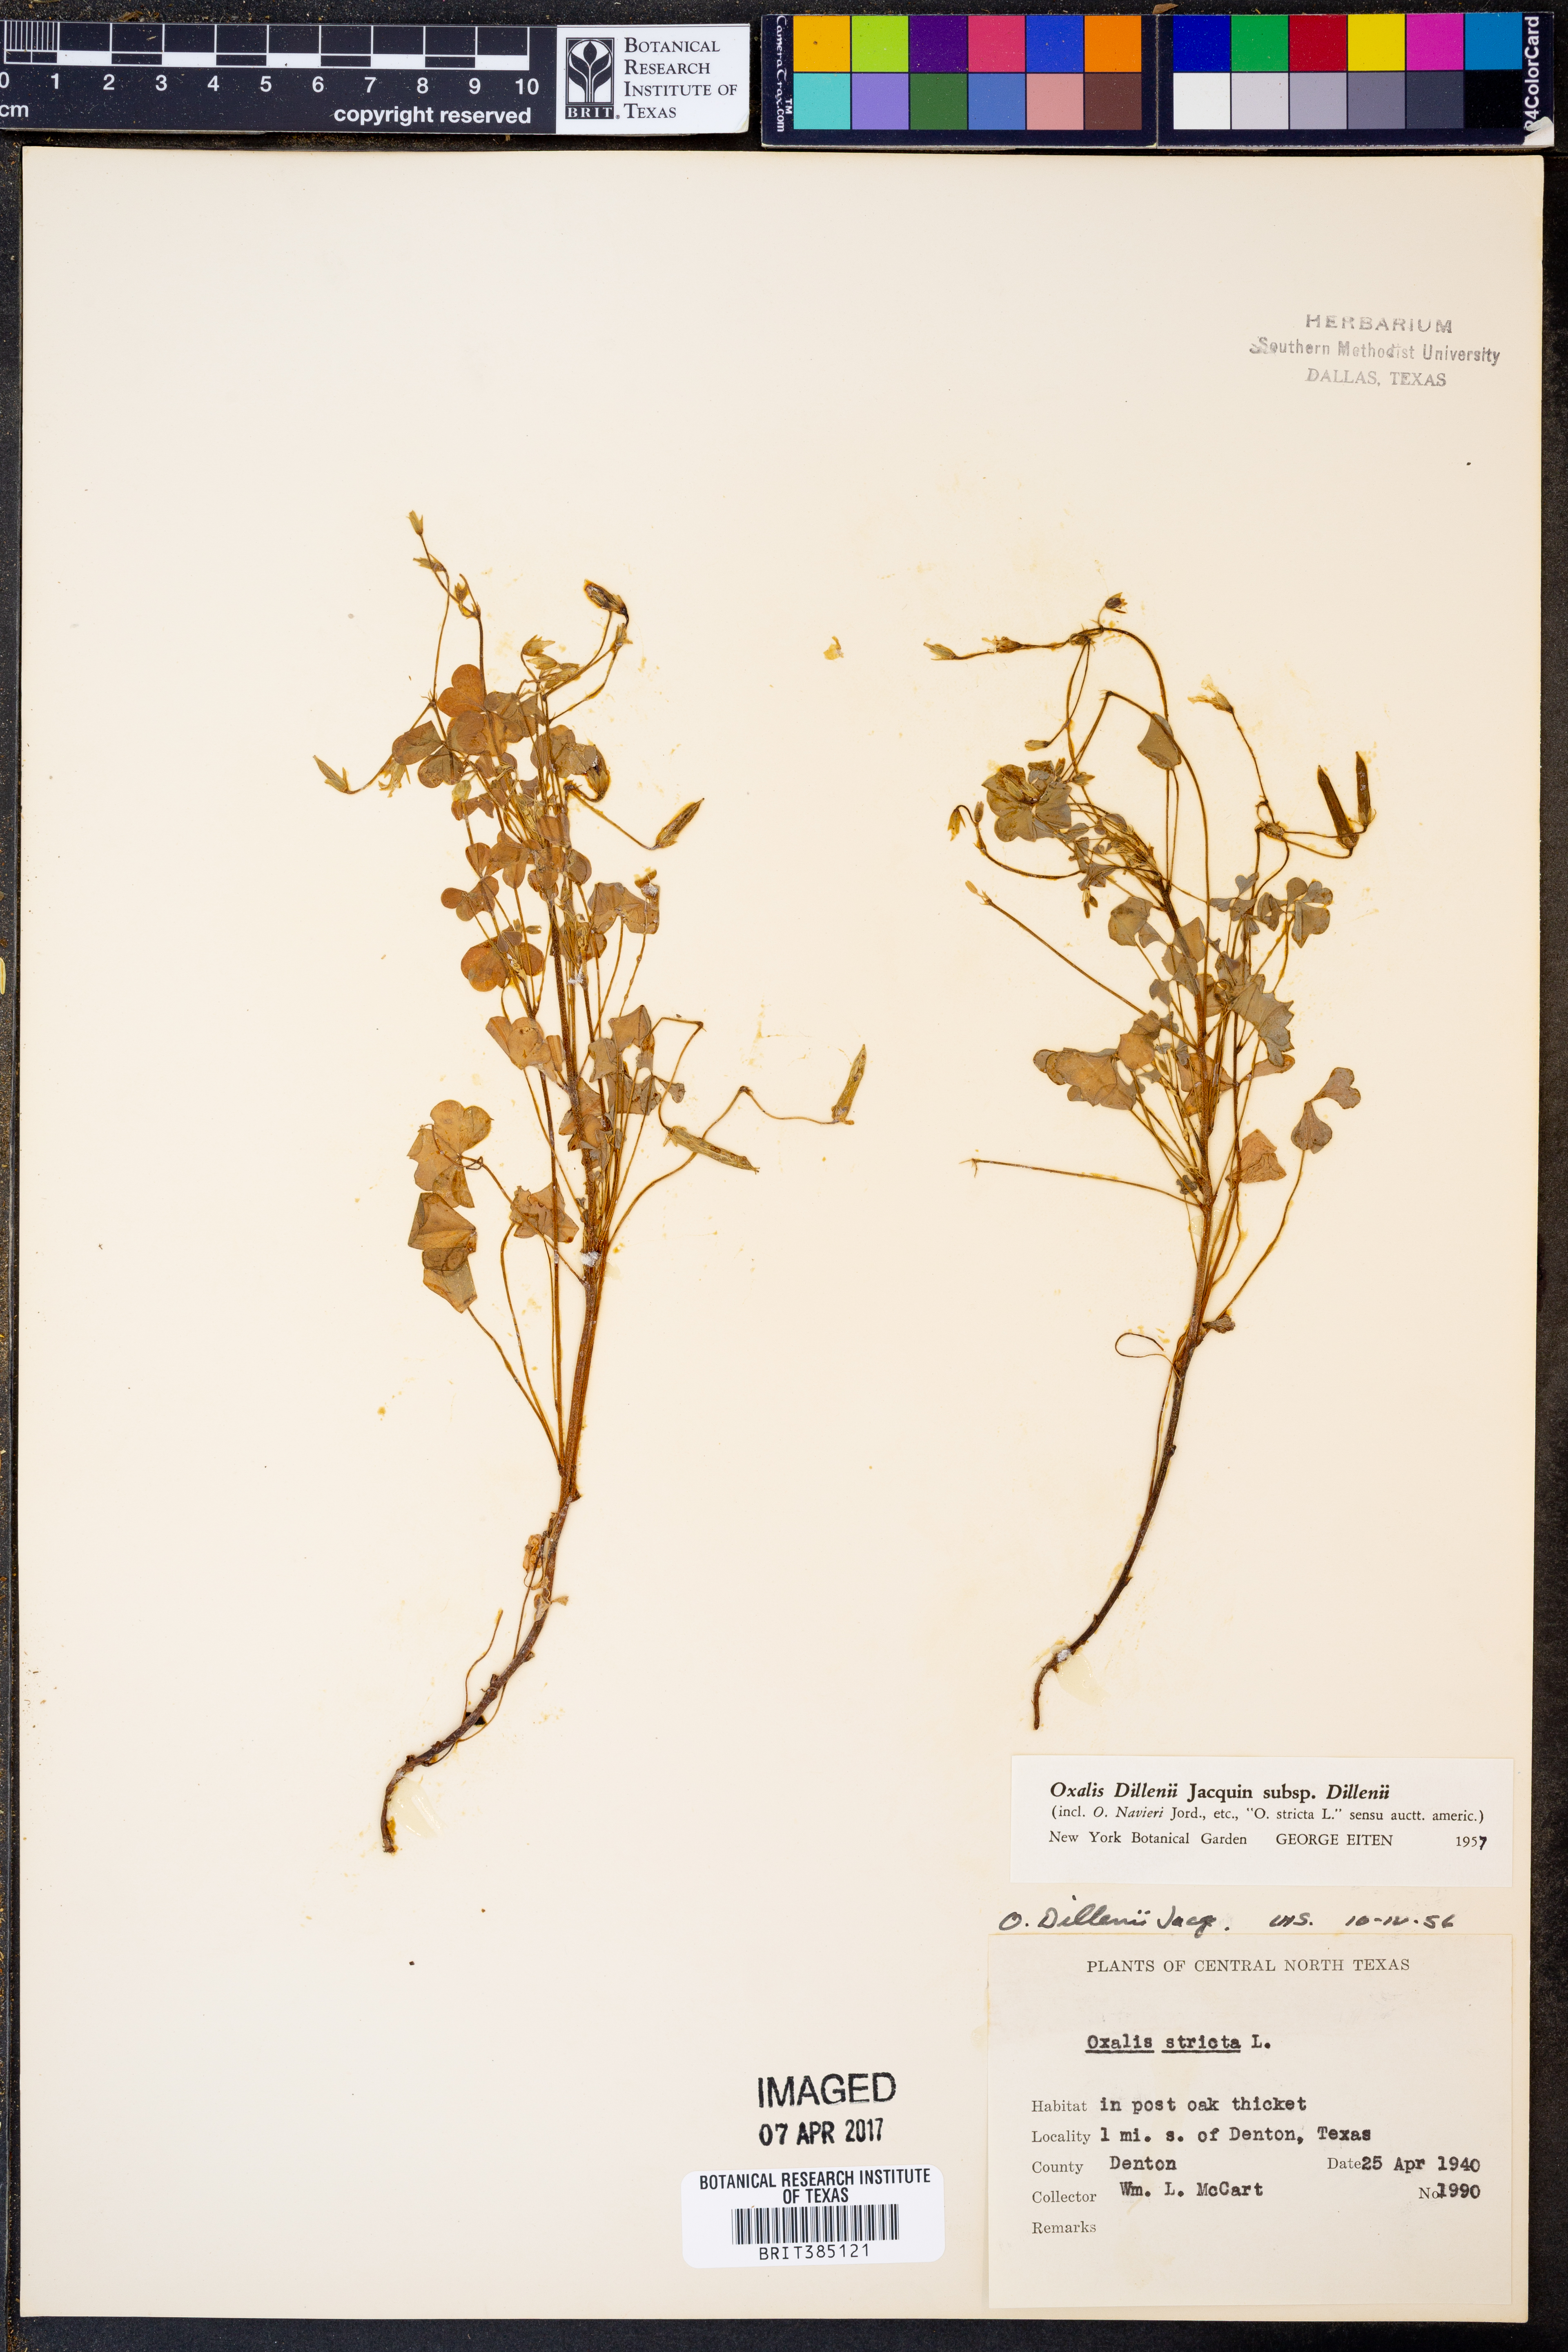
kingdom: Plantae
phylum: Tracheophyta
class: Magnoliopsida
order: Oxalidales
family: Oxalidaceae
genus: Oxalis
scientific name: Oxalis dillenii
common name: Sussex yellow-sorrel
